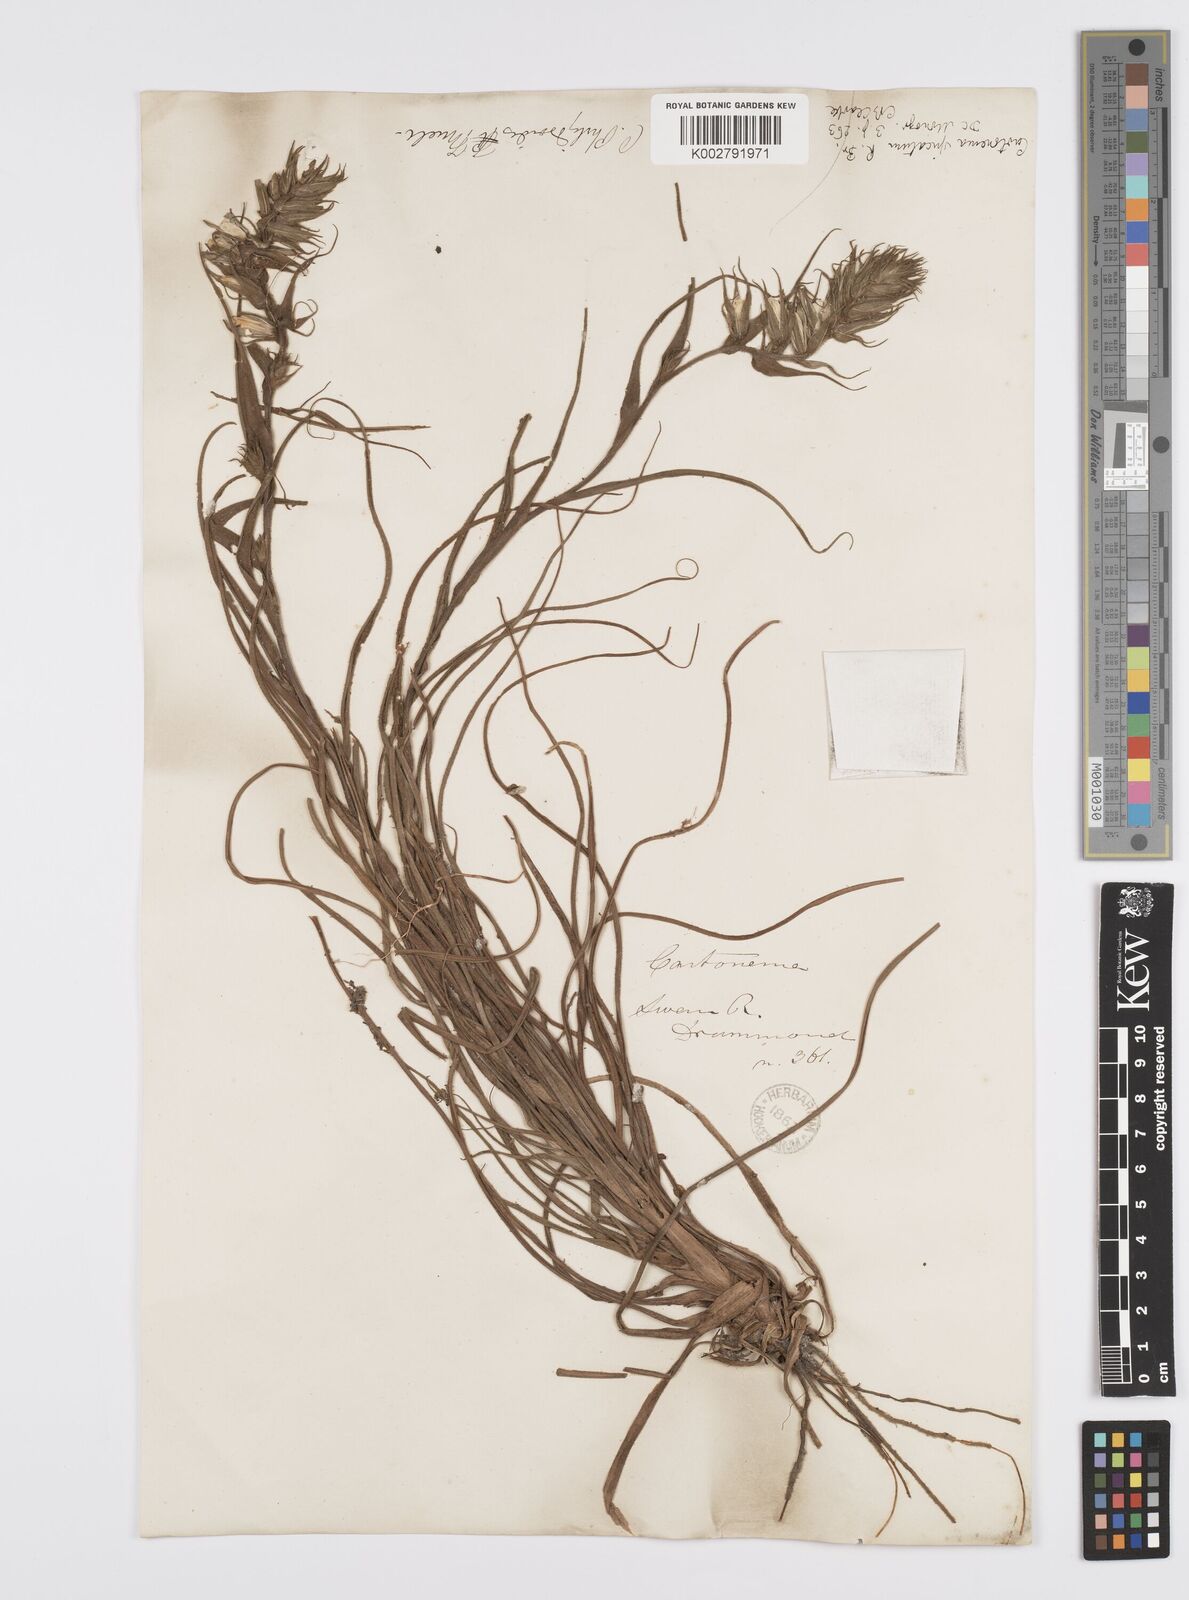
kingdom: Plantae
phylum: Tracheophyta
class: Liliopsida
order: Commelinales
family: Commelinaceae
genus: Cartonema
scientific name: Cartonema philydroides
